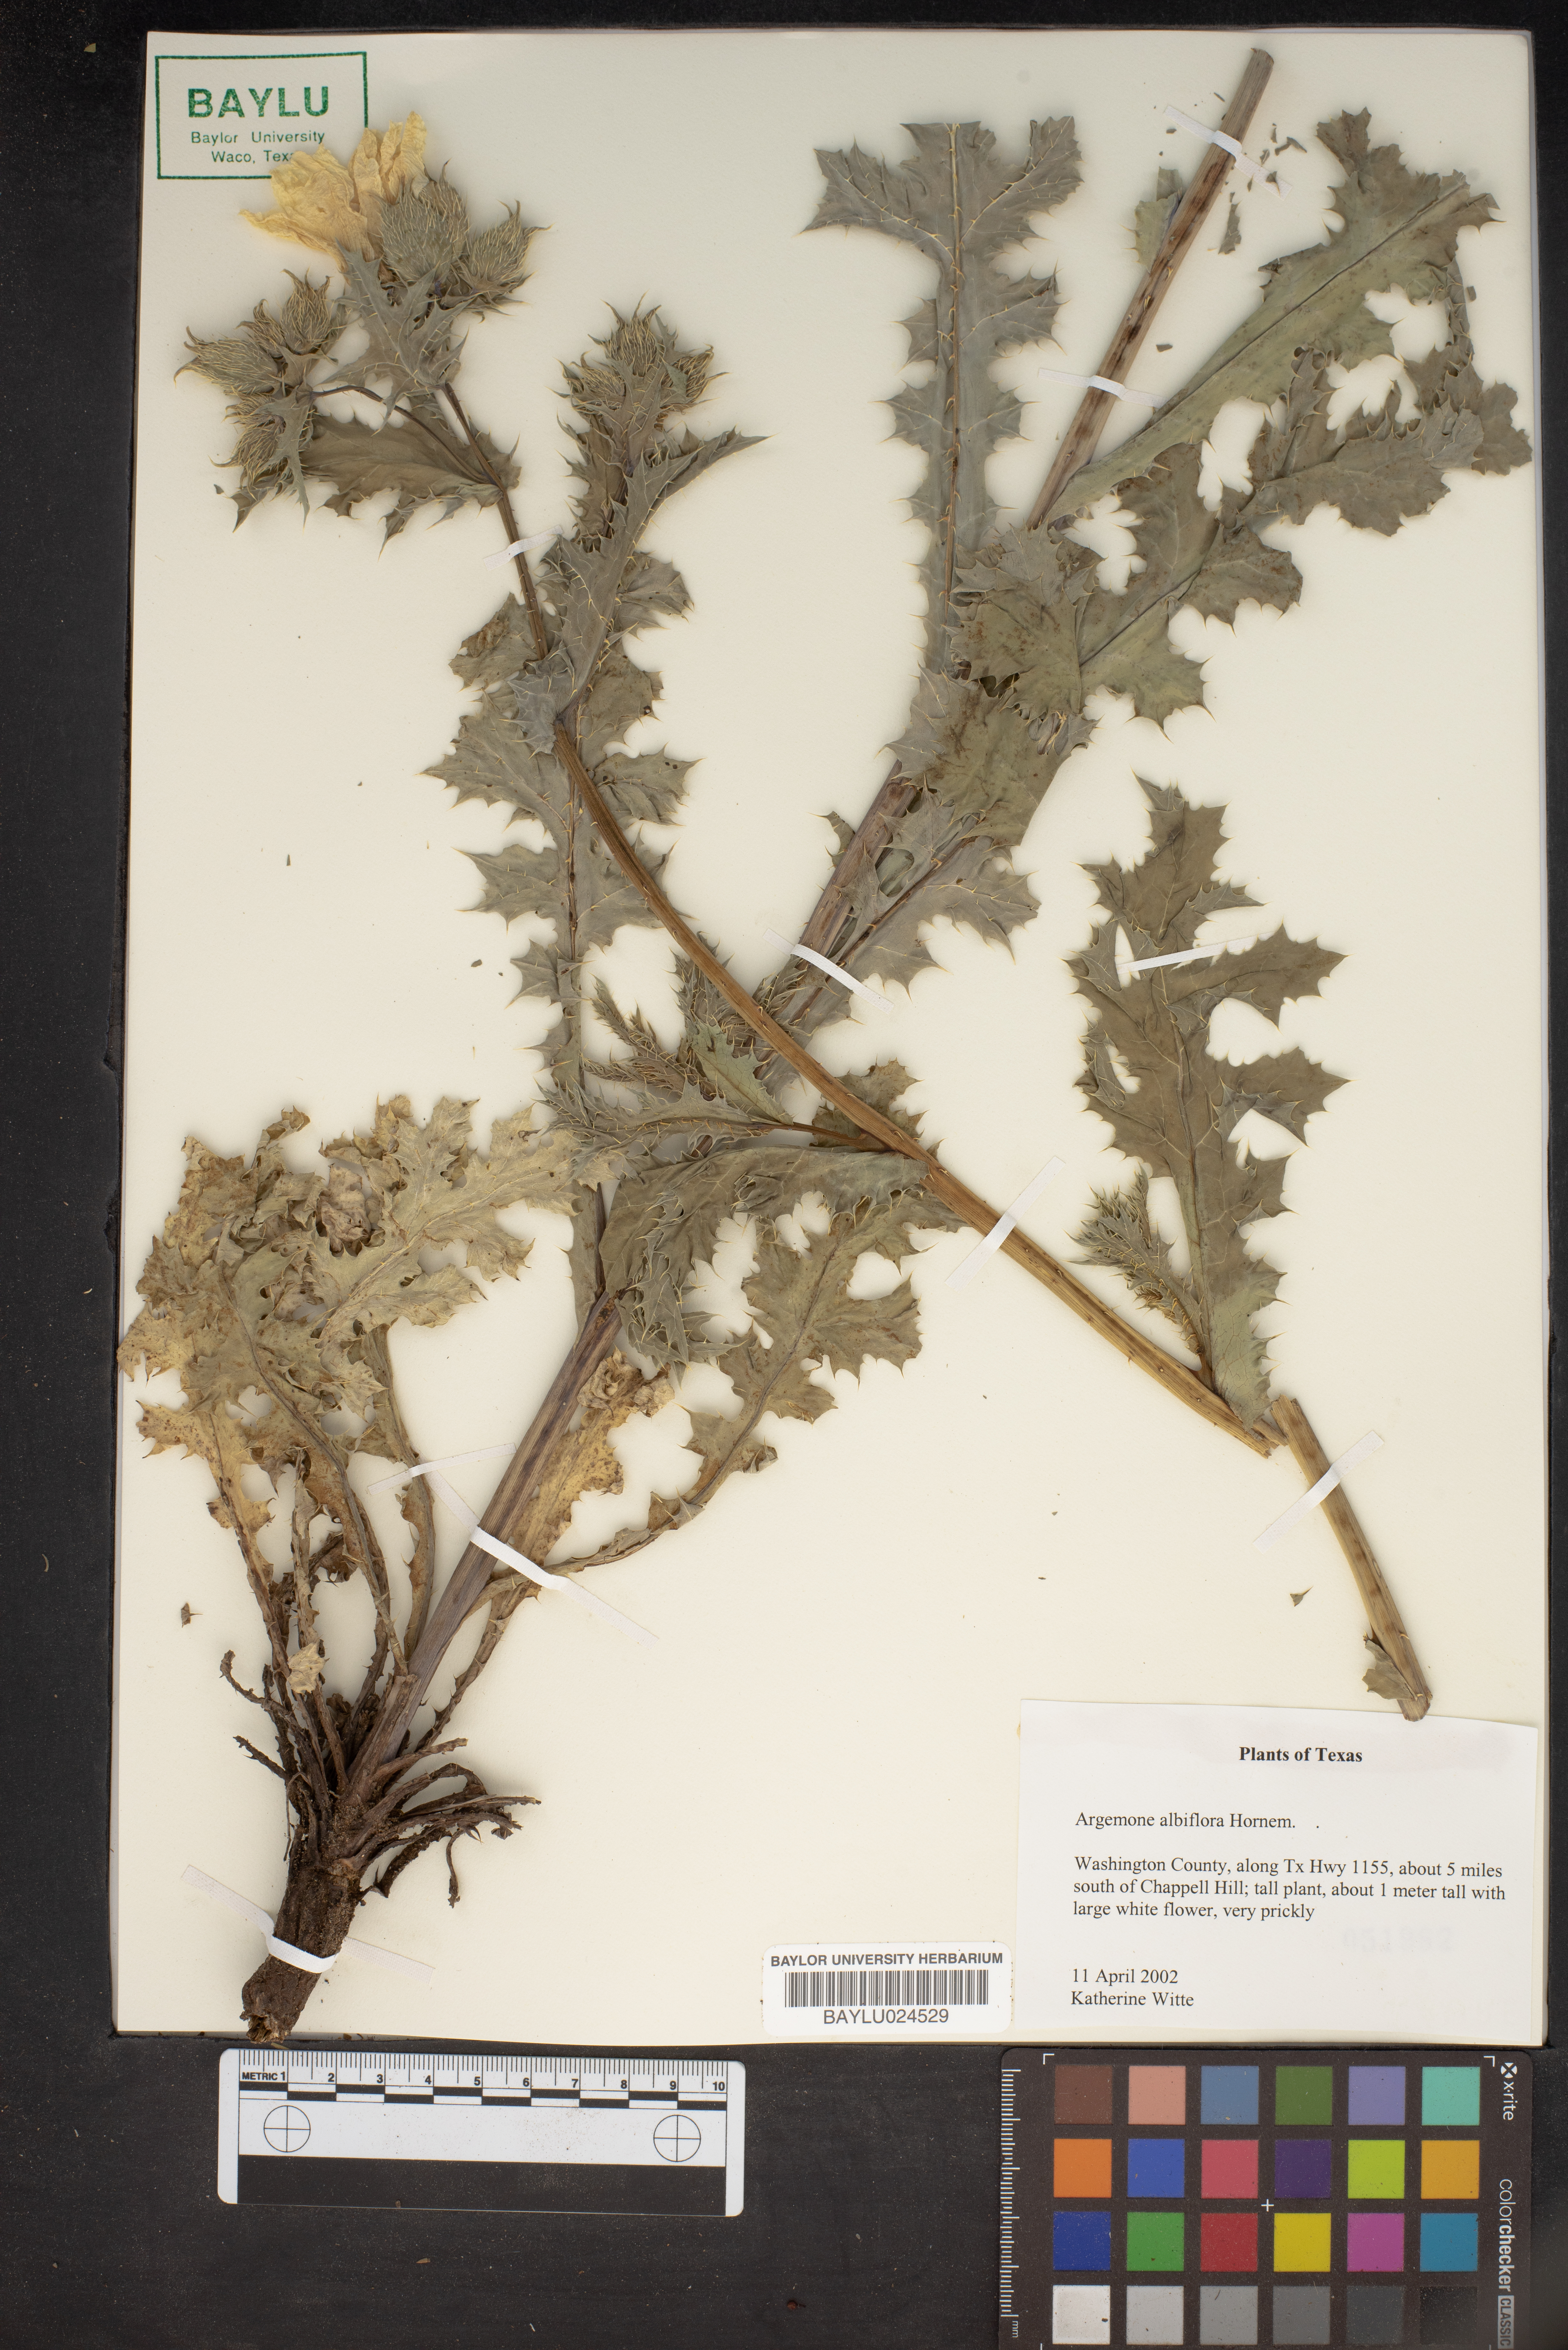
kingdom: Plantae
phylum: Tracheophyta
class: Magnoliopsida
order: Ranunculales
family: Papaveraceae
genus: Argemone
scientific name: Argemone albiflora
